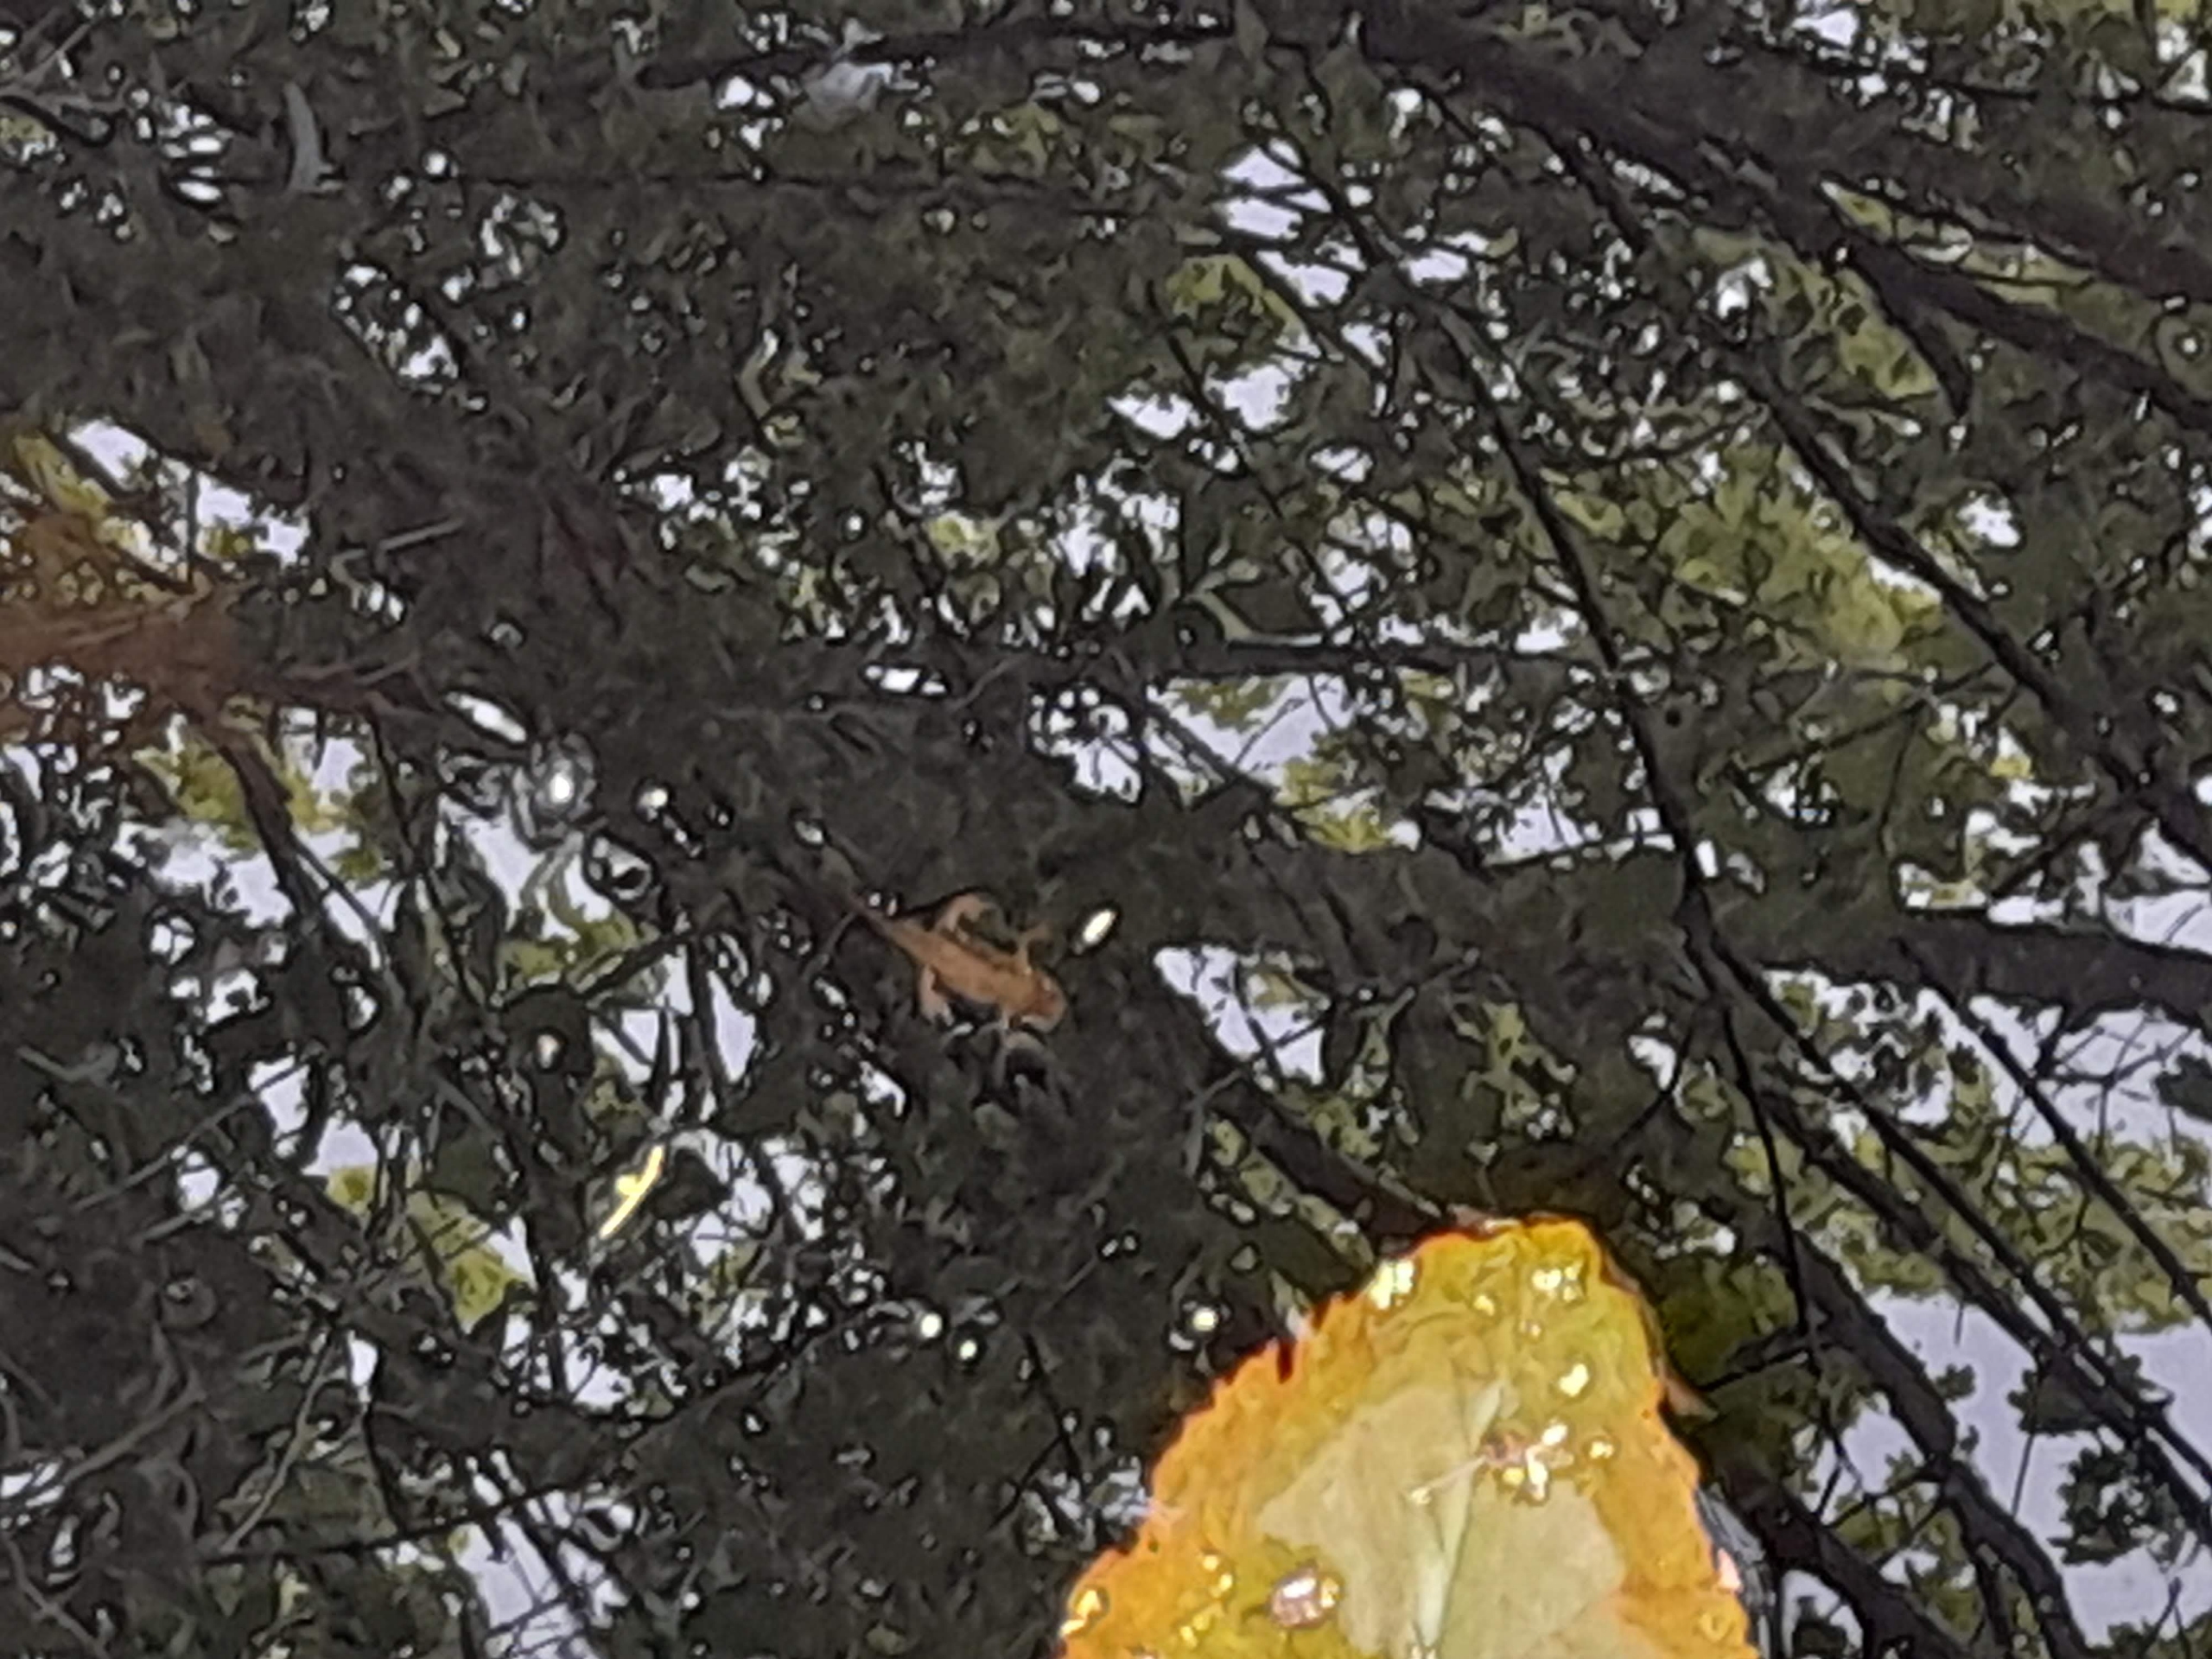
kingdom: Animalia
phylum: Chordata
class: Amphibia
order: Caudata
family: Salamandridae
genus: Lissotriton
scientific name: Lissotriton vulgaris
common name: Lille vandsalamander
